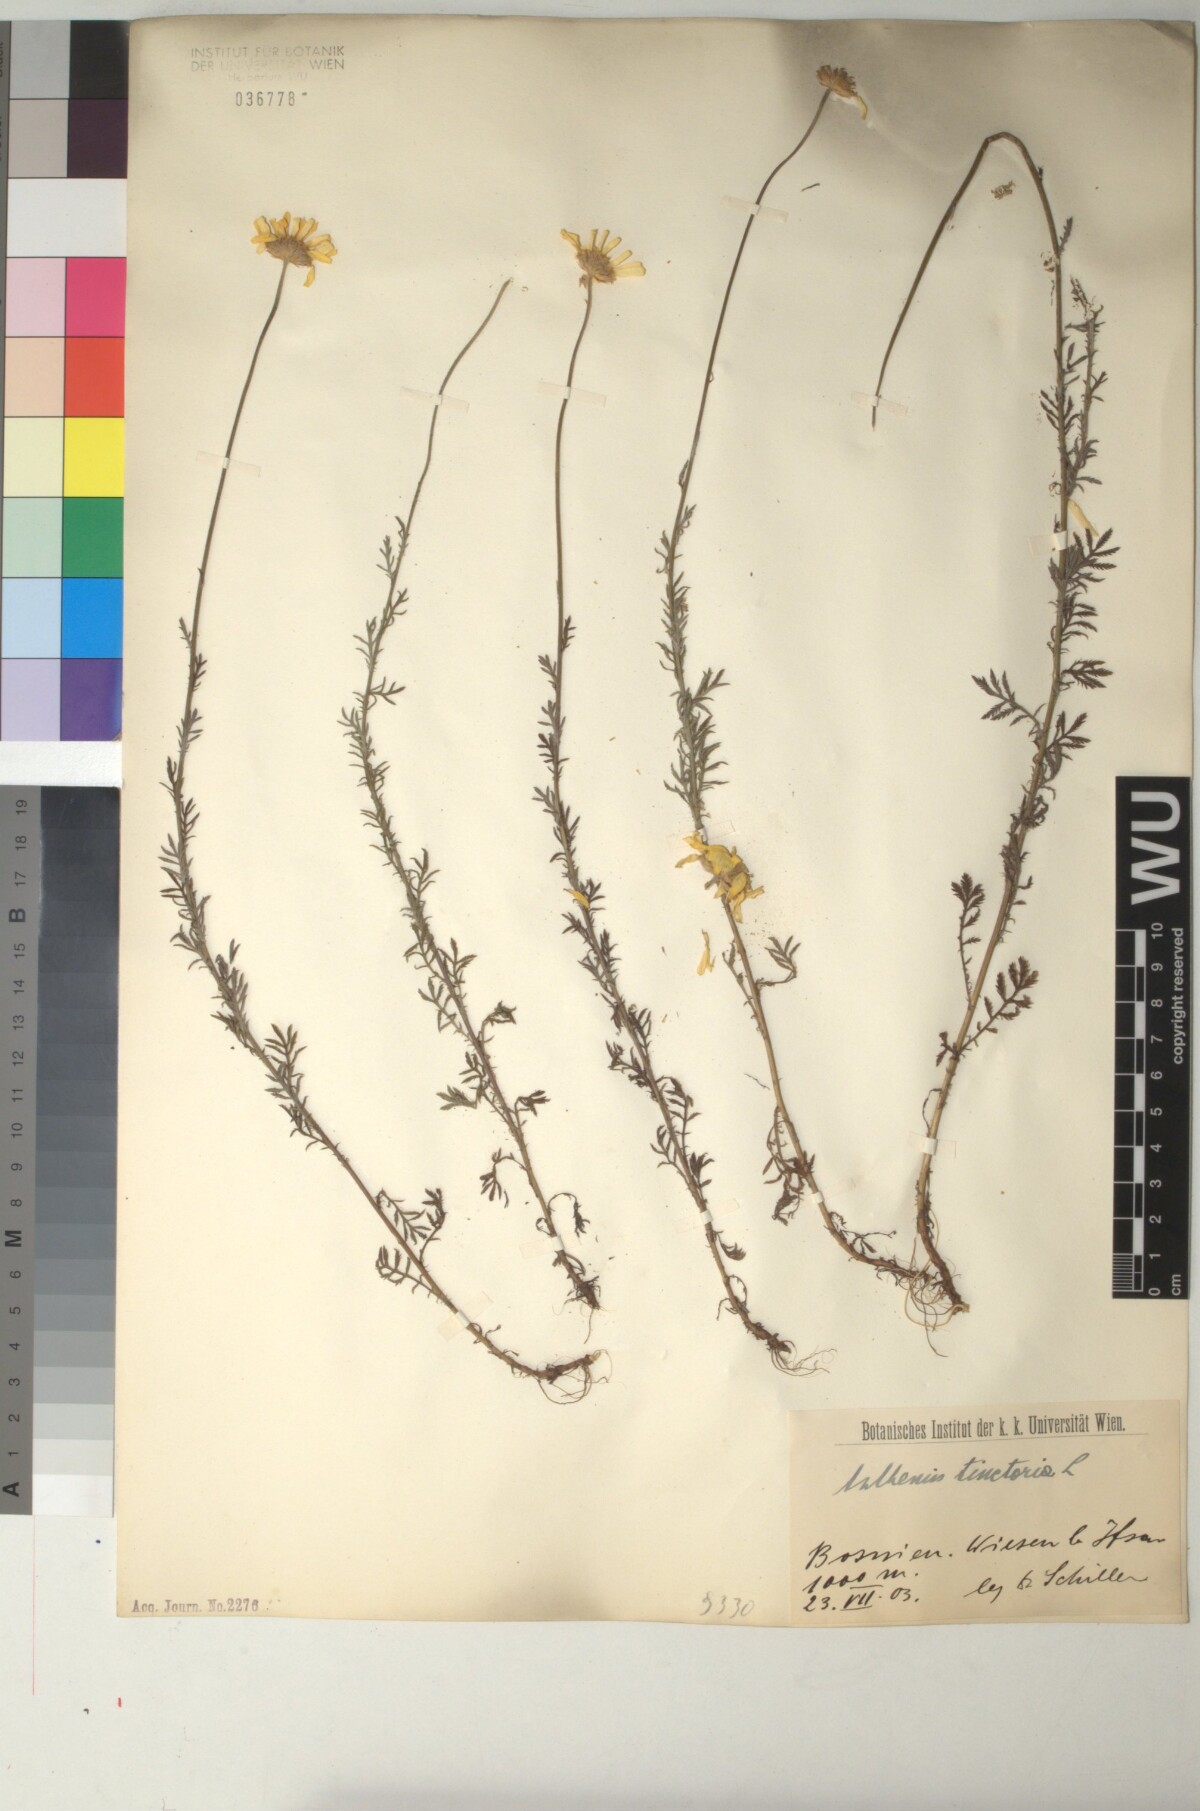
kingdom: Plantae
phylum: Tracheophyta
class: Magnoliopsida
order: Asterales
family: Asteraceae
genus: Cota
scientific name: Cota tinctoria
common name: Golden chamomile
